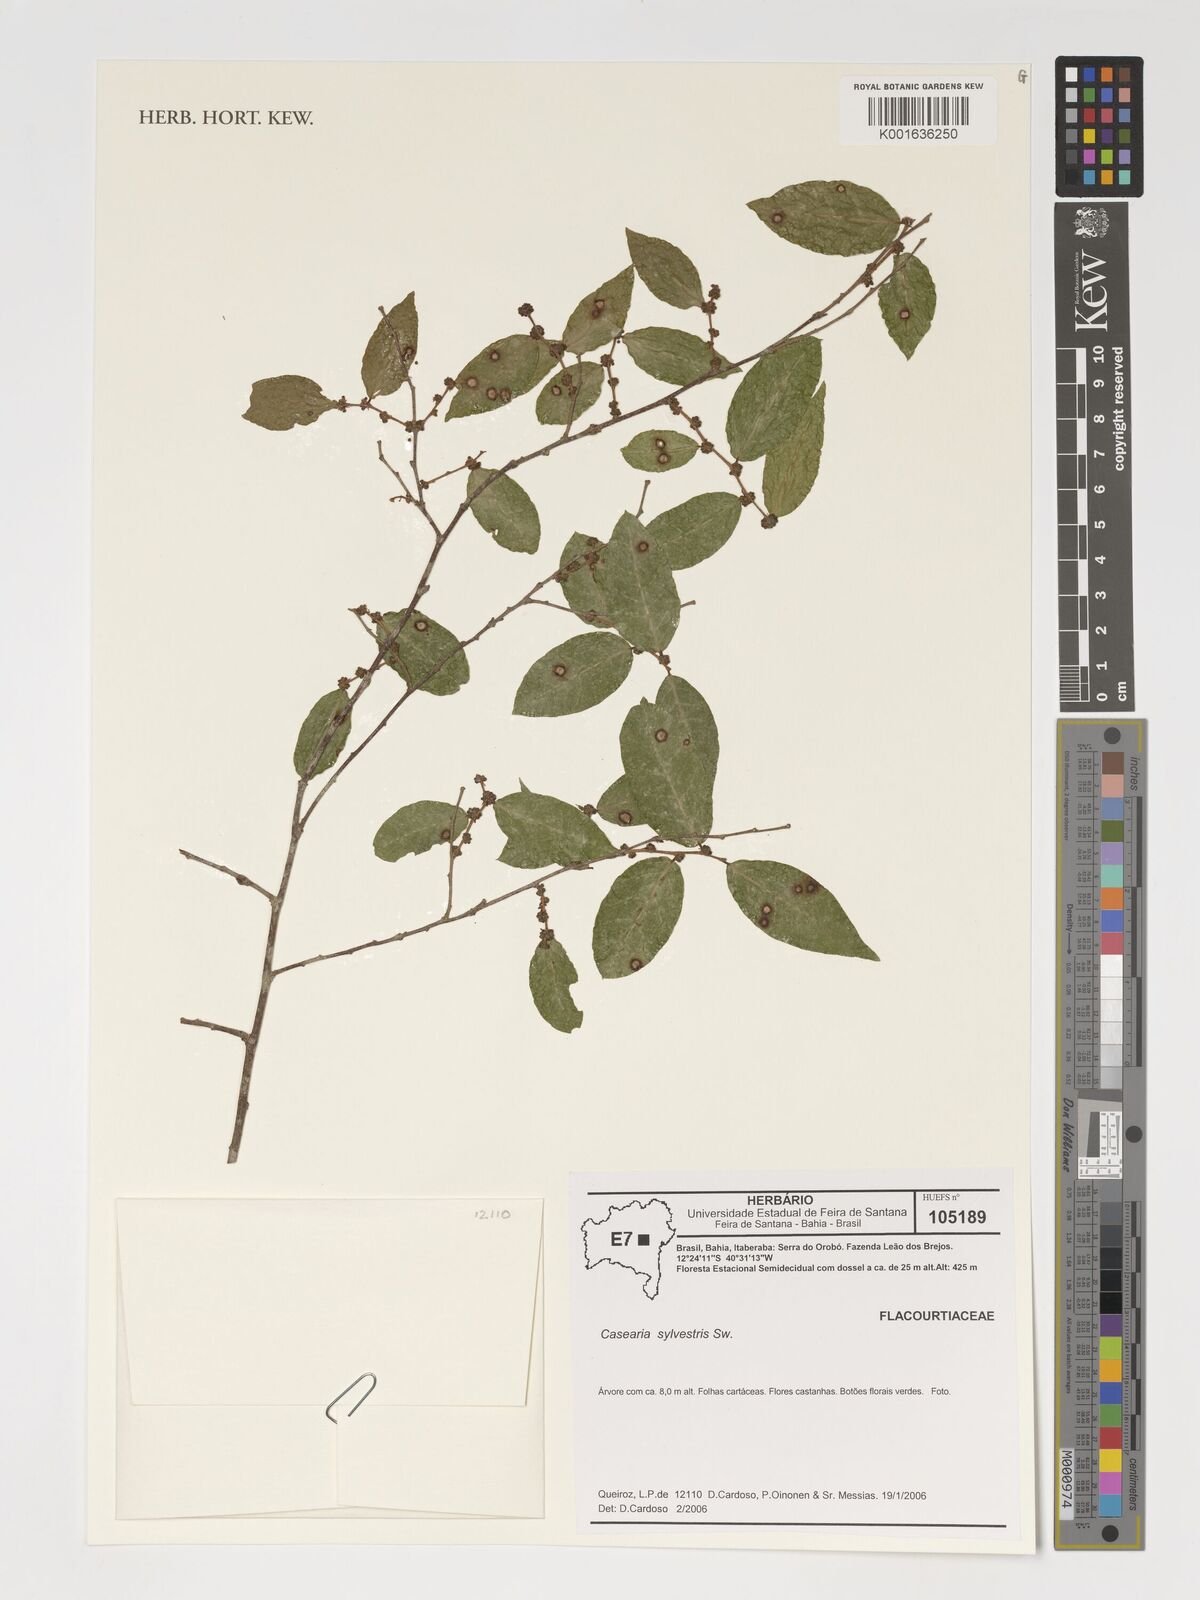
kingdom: Plantae
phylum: Tracheophyta
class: Magnoliopsida
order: Malpighiales
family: Salicaceae
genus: Casearia
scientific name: Casearia sylvestris
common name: Wild sage
